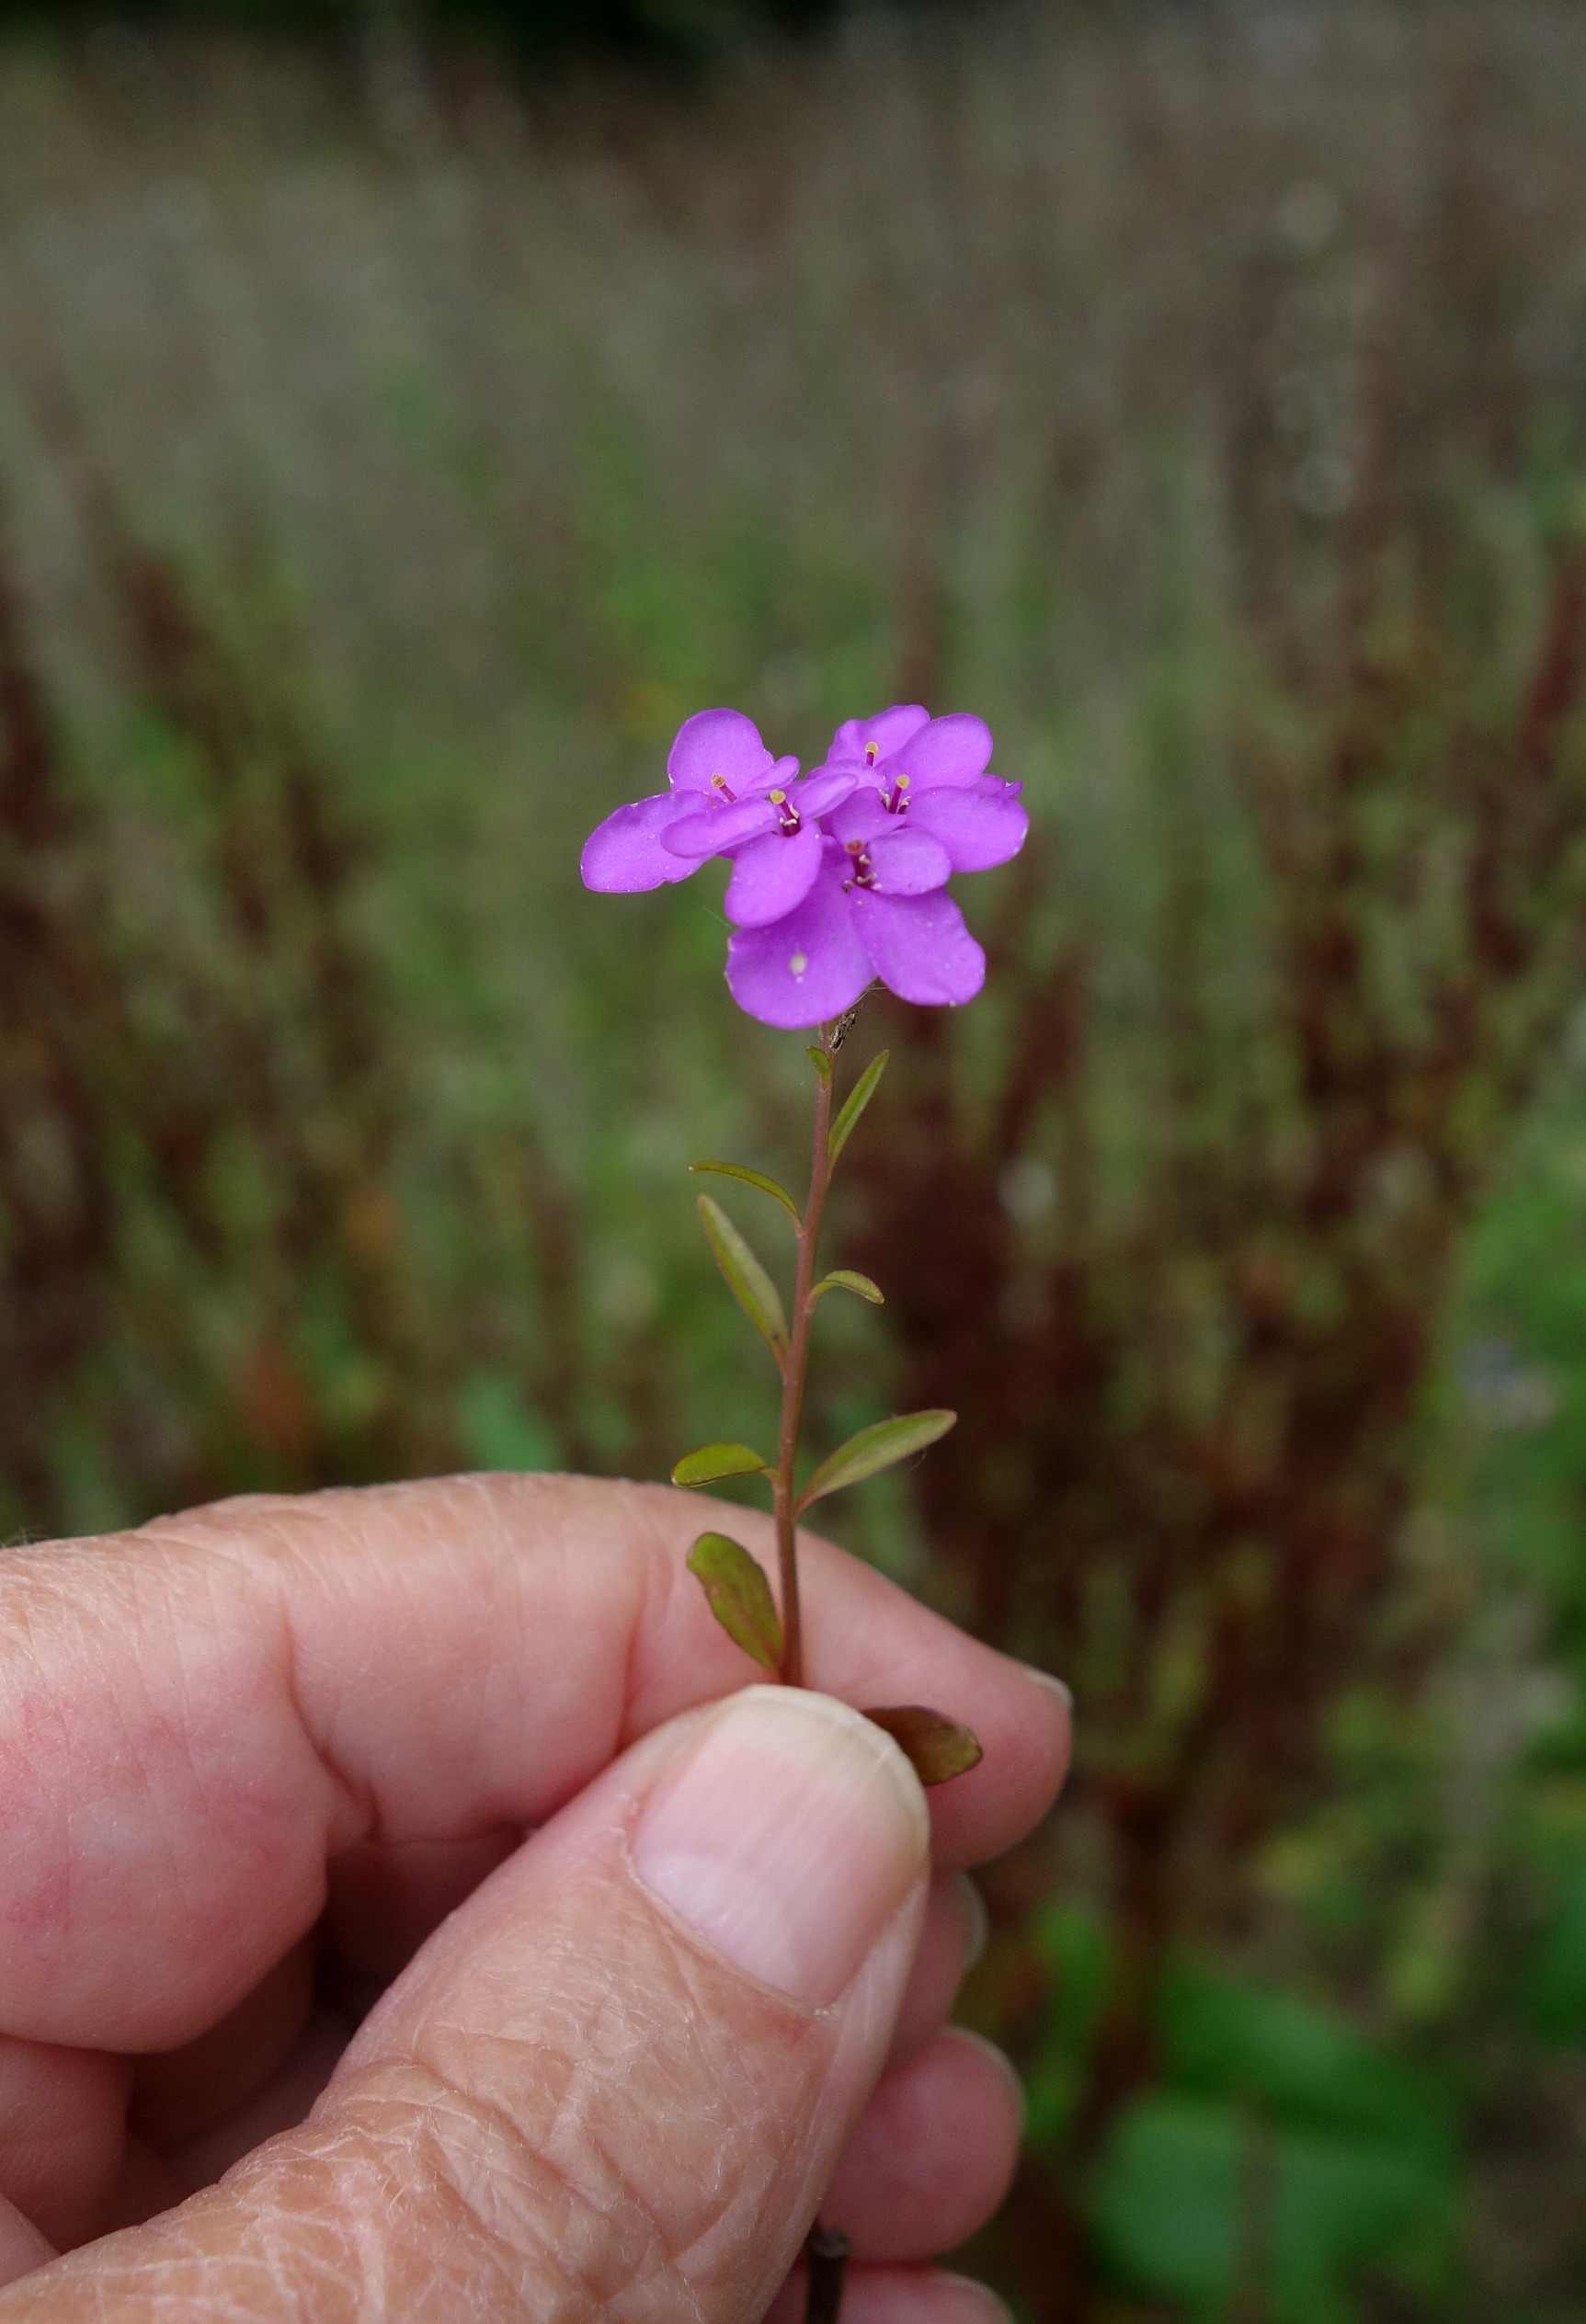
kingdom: Plantae
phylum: Tracheophyta
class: Magnoliopsida
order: Brassicales
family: Brassicaceae
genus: Iberis
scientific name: Iberis umbellata
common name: Skærm-sløjfeblomst
